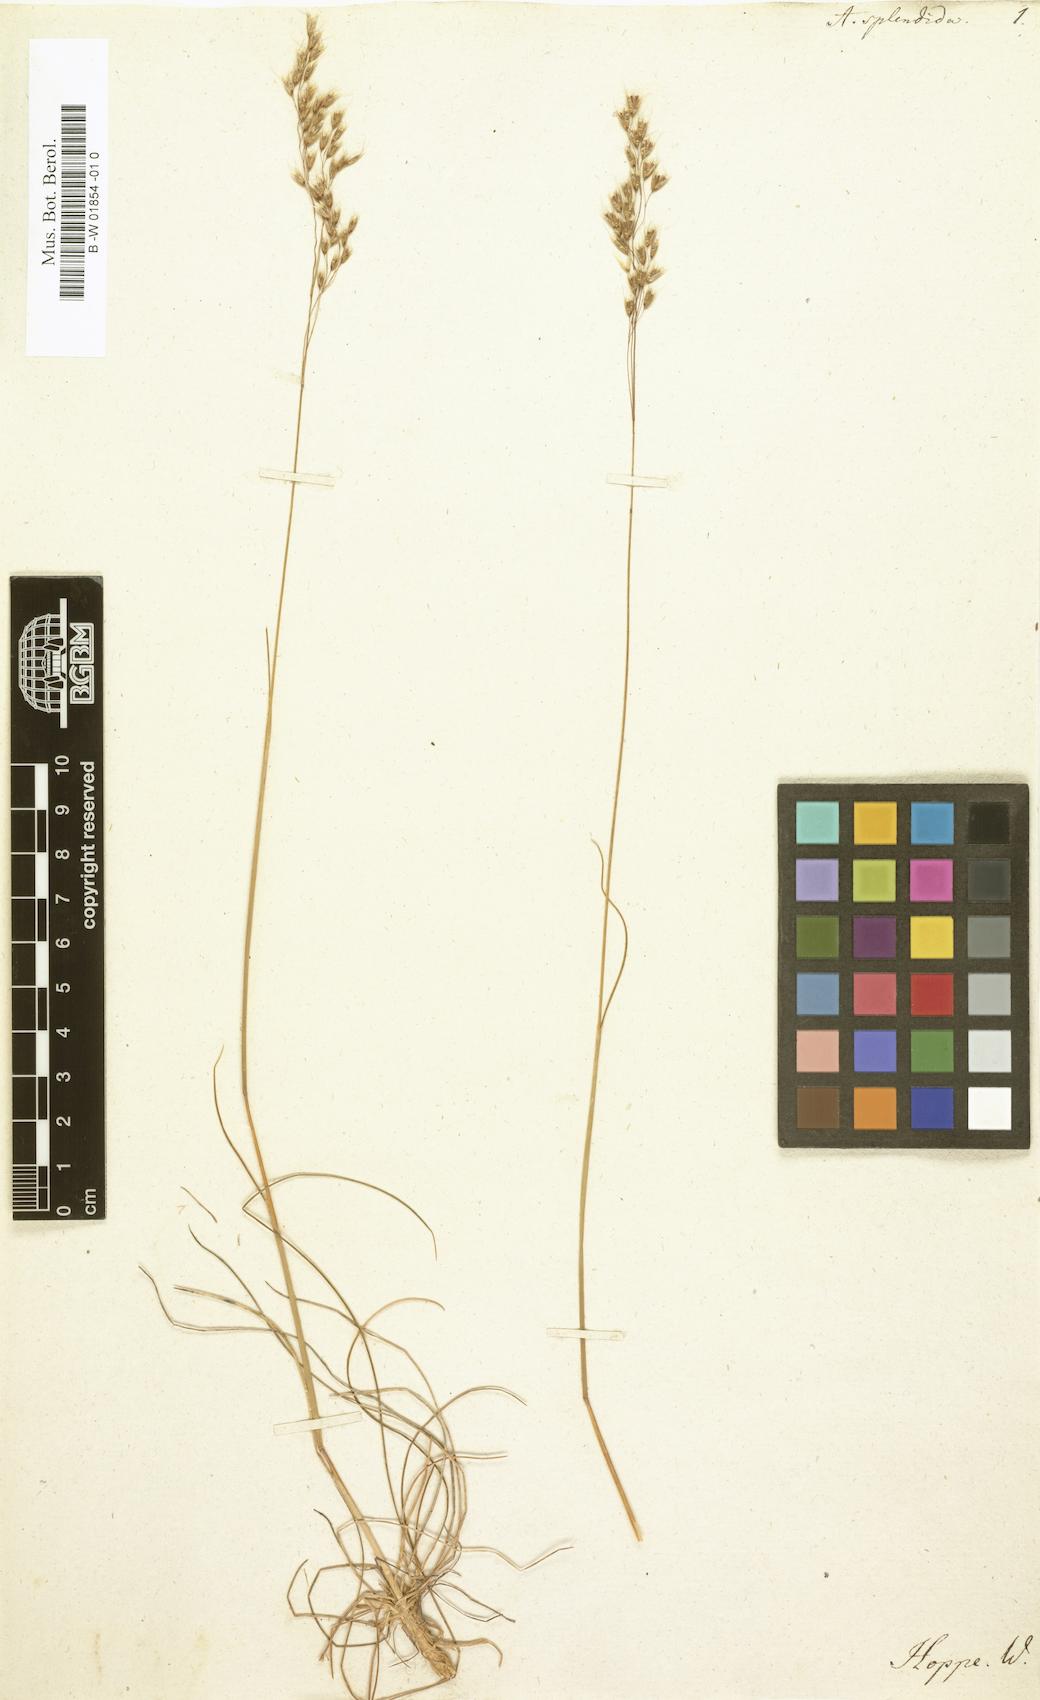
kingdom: Plantae
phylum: Tracheophyta
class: Liliopsida
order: Poales
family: Poaceae
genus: Avenella
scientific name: Avenella flexuosa
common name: Wavy hairgrass
